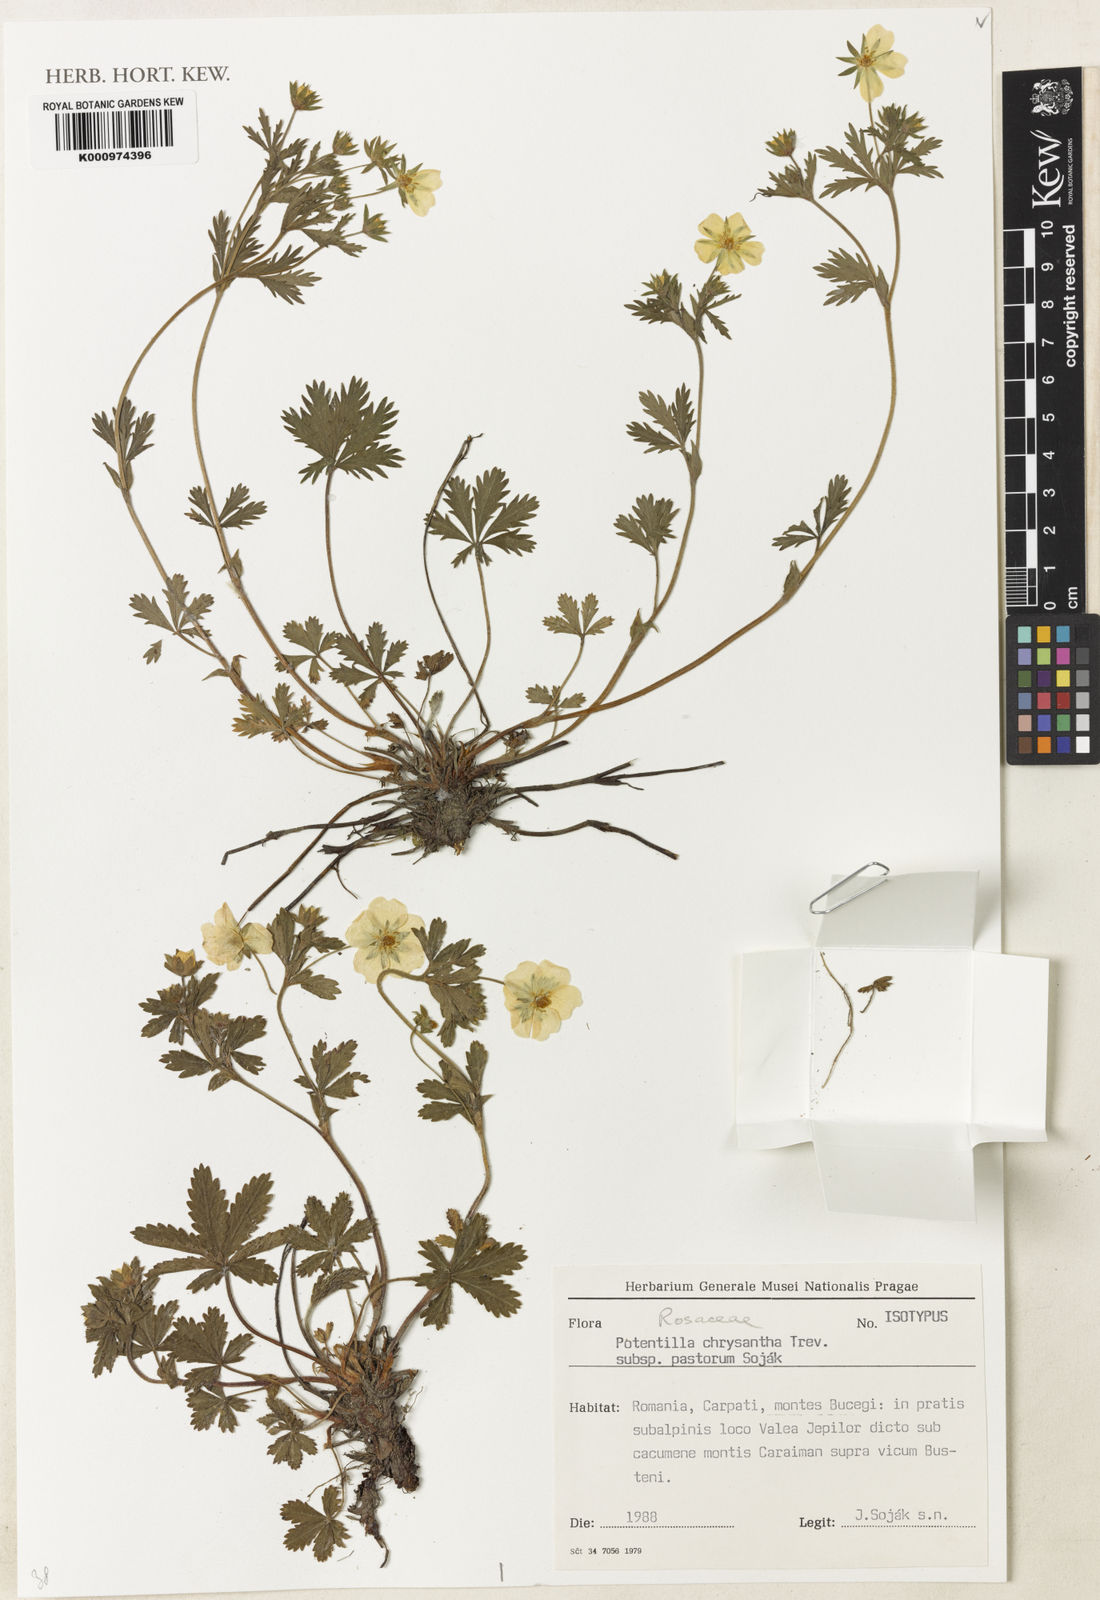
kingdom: Plantae
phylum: Tracheophyta
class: Magnoliopsida
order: Rosales
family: Rosaceae
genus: Potentilla
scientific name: Potentilla chrysantha
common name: Thuringian cinquefoil
